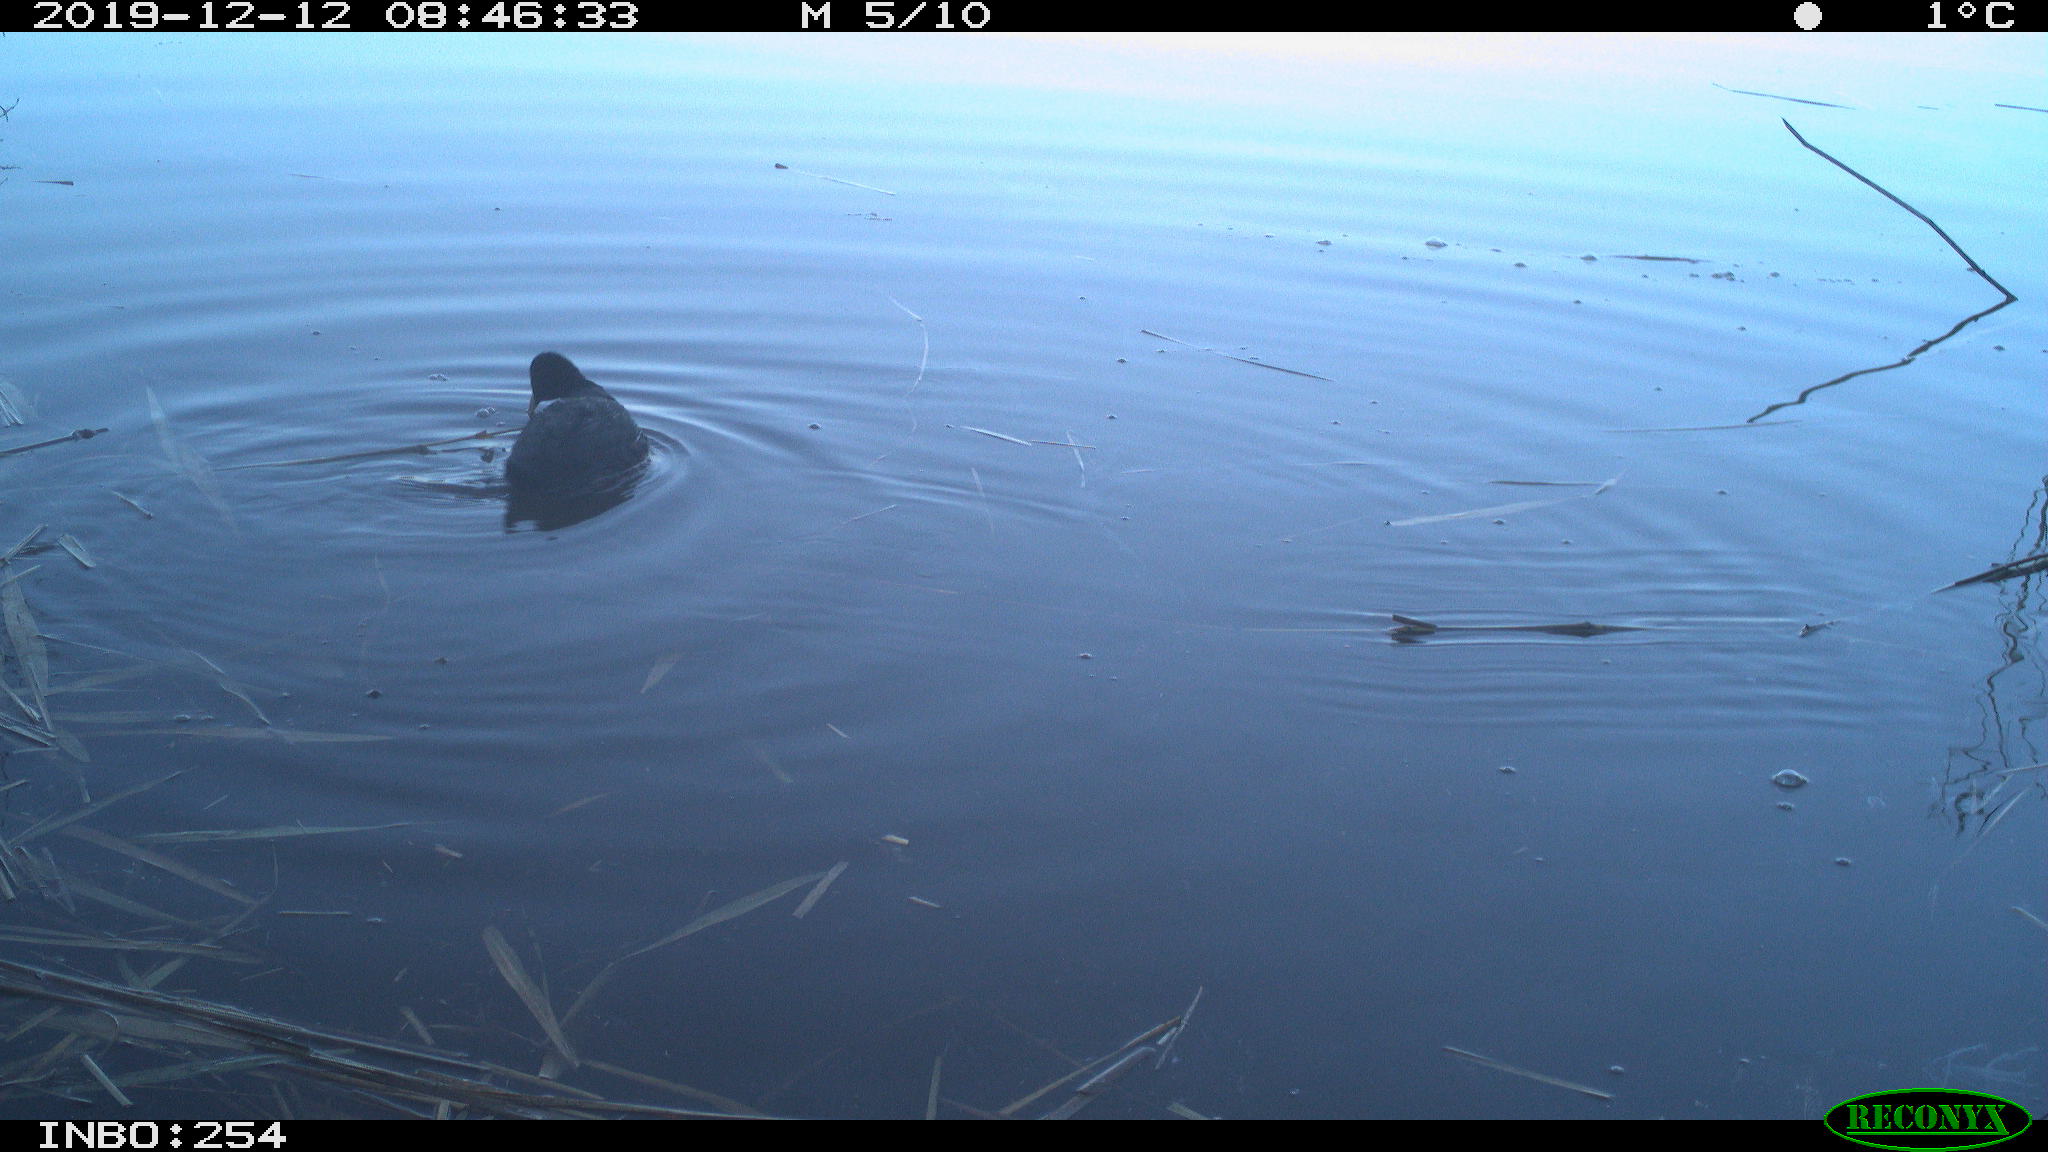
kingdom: Animalia
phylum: Chordata
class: Aves
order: Gruiformes
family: Rallidae
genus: Fulica
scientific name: Fulica atra
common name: Eurasian coot
